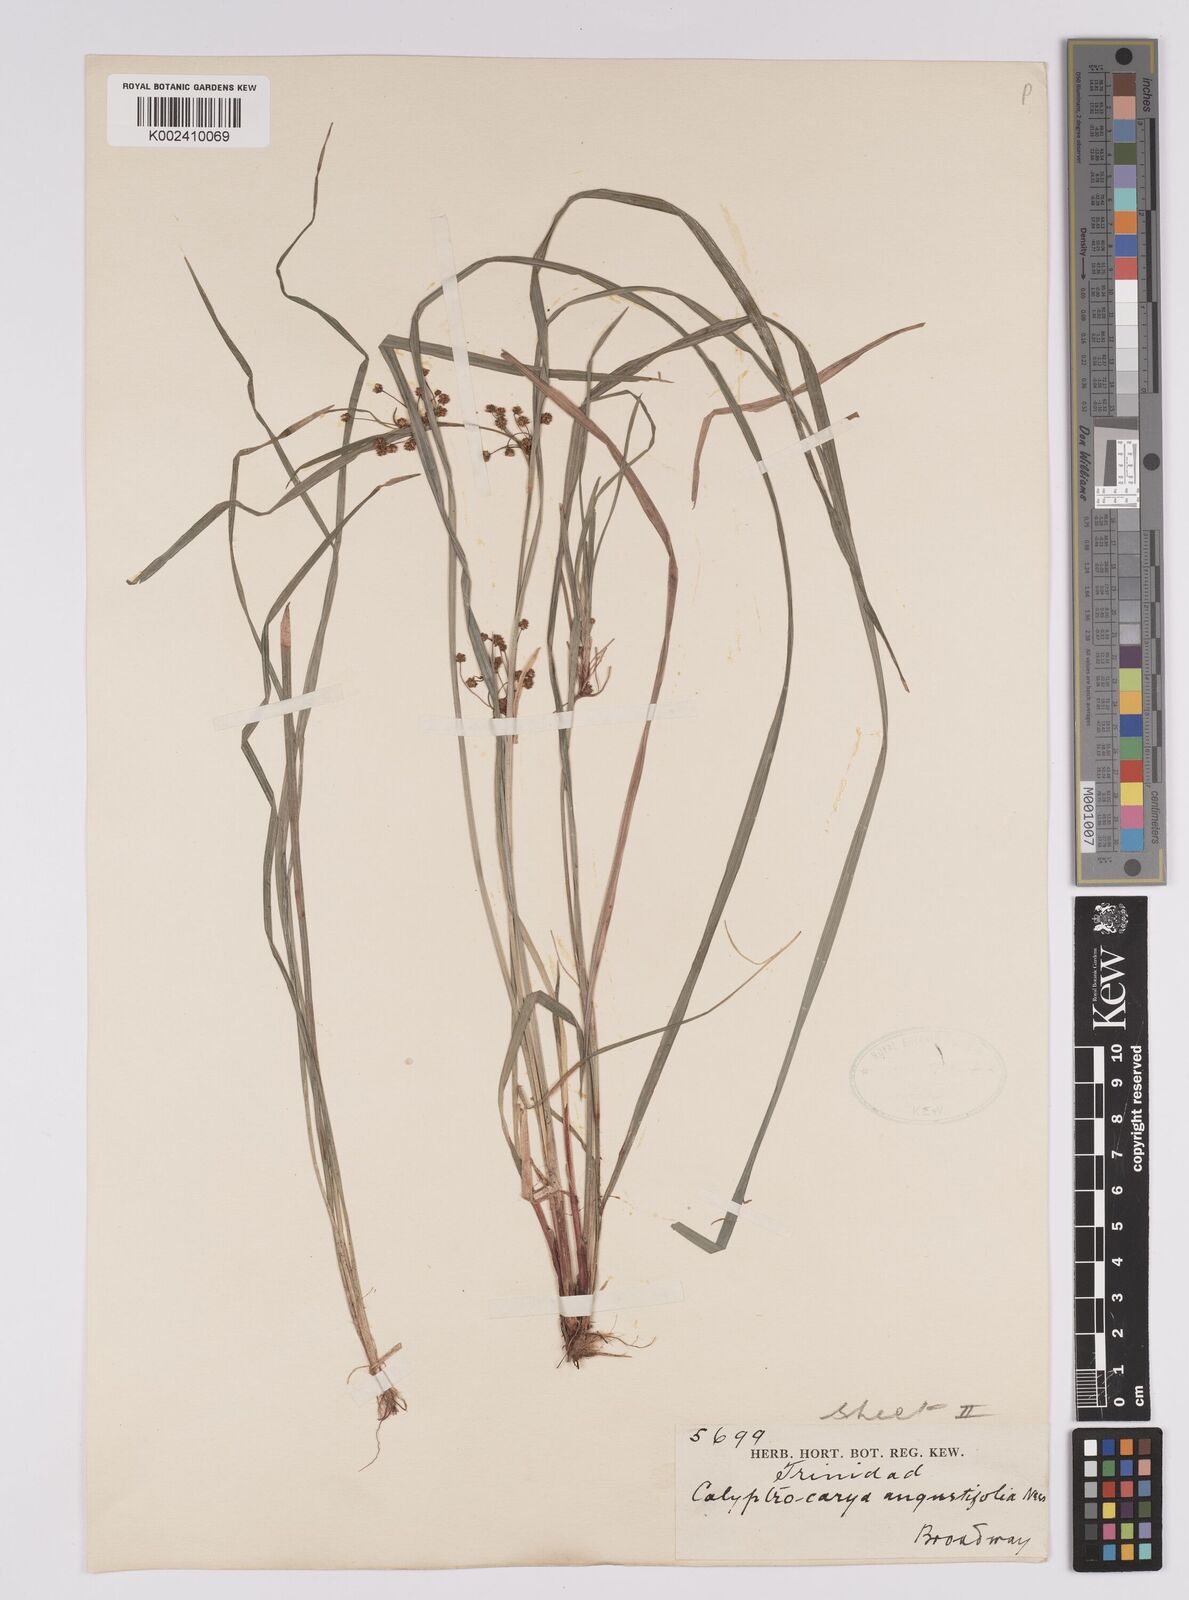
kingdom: Plantae
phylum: Tracheophyta
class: Liliopsida
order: Poales
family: Cyperaceae
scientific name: Cyperaceae
